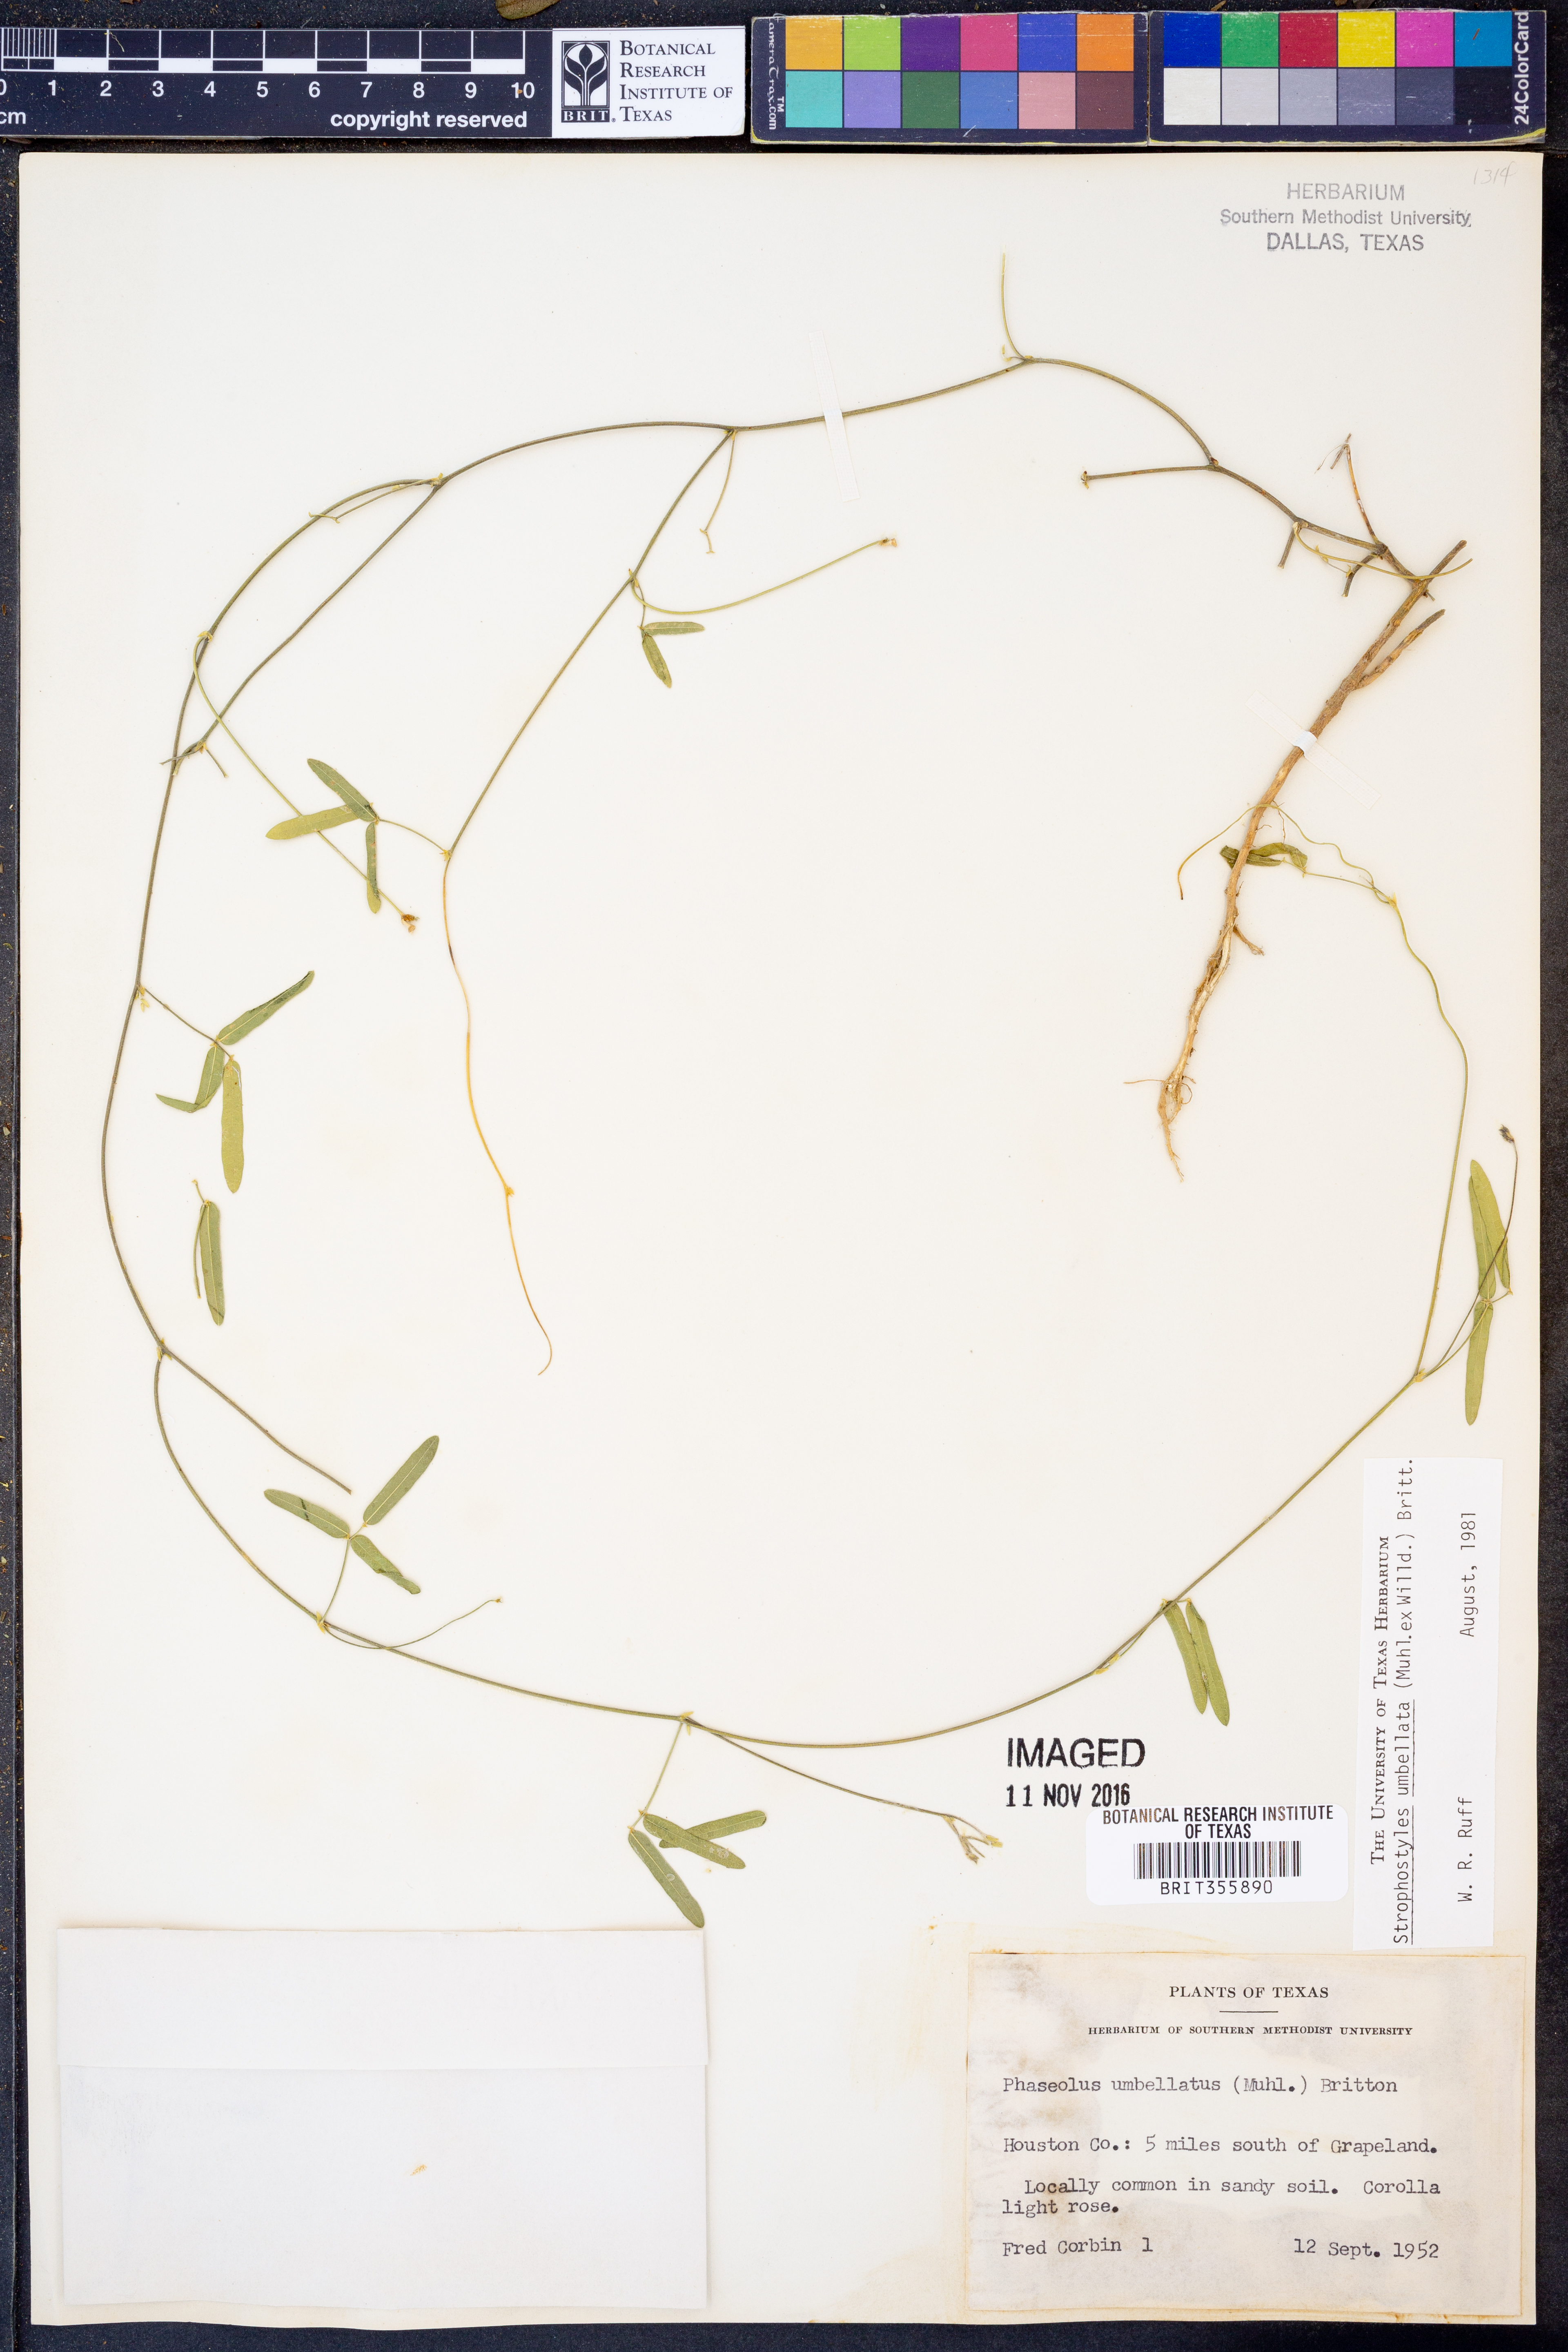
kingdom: Plantae
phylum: Tracheophyta
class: Magnoliopsida
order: Fabales
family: Fabaceae
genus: Strophostyles
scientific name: Strophostyles umbellata
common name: Perennial wild bean
